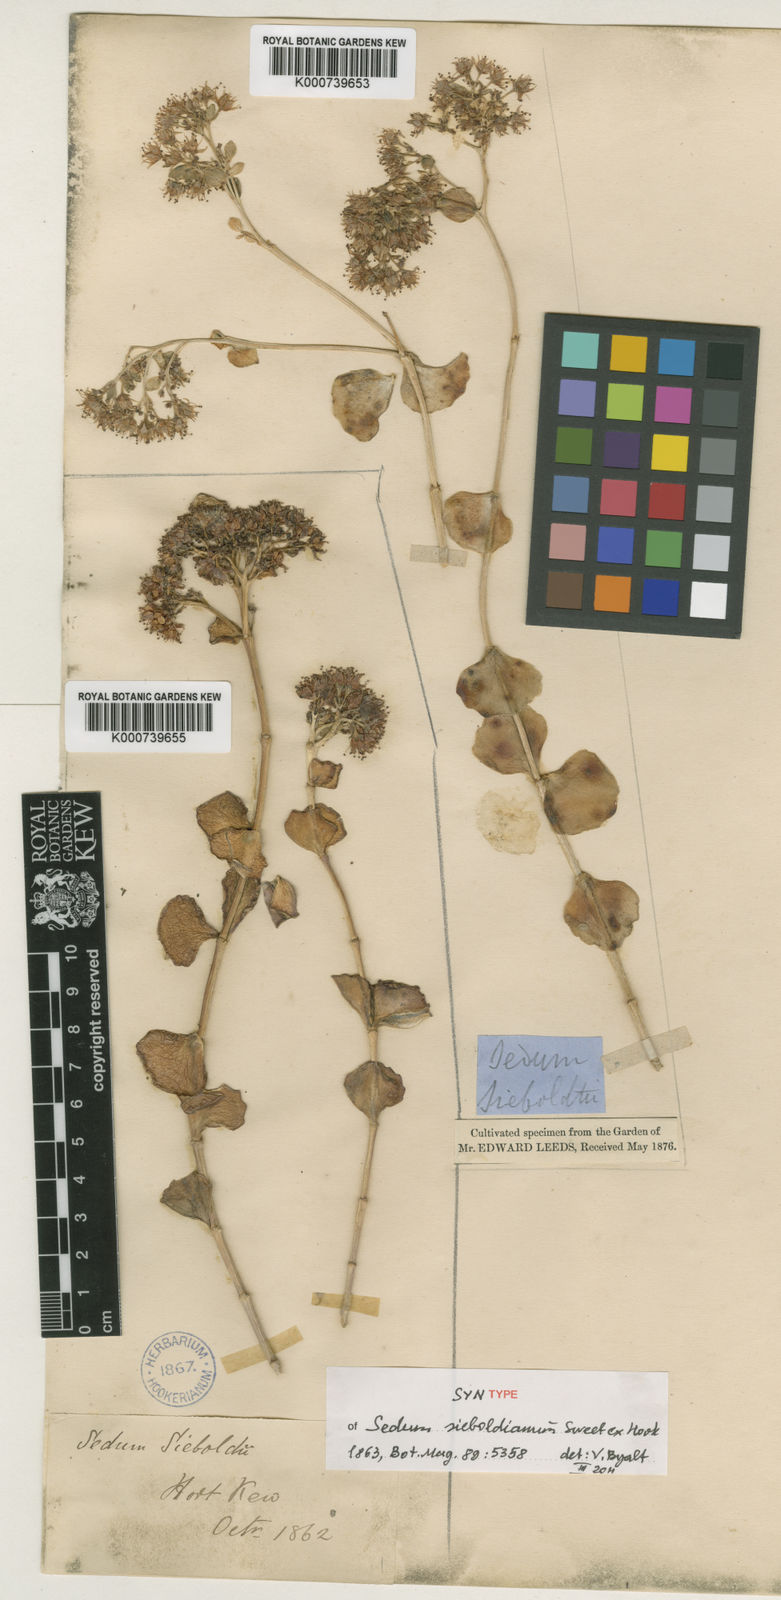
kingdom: Plantae
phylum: Tracheophyta
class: Magnoliopsida
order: Saxifragales
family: Crassulaceae
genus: Sedum
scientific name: Sedum
